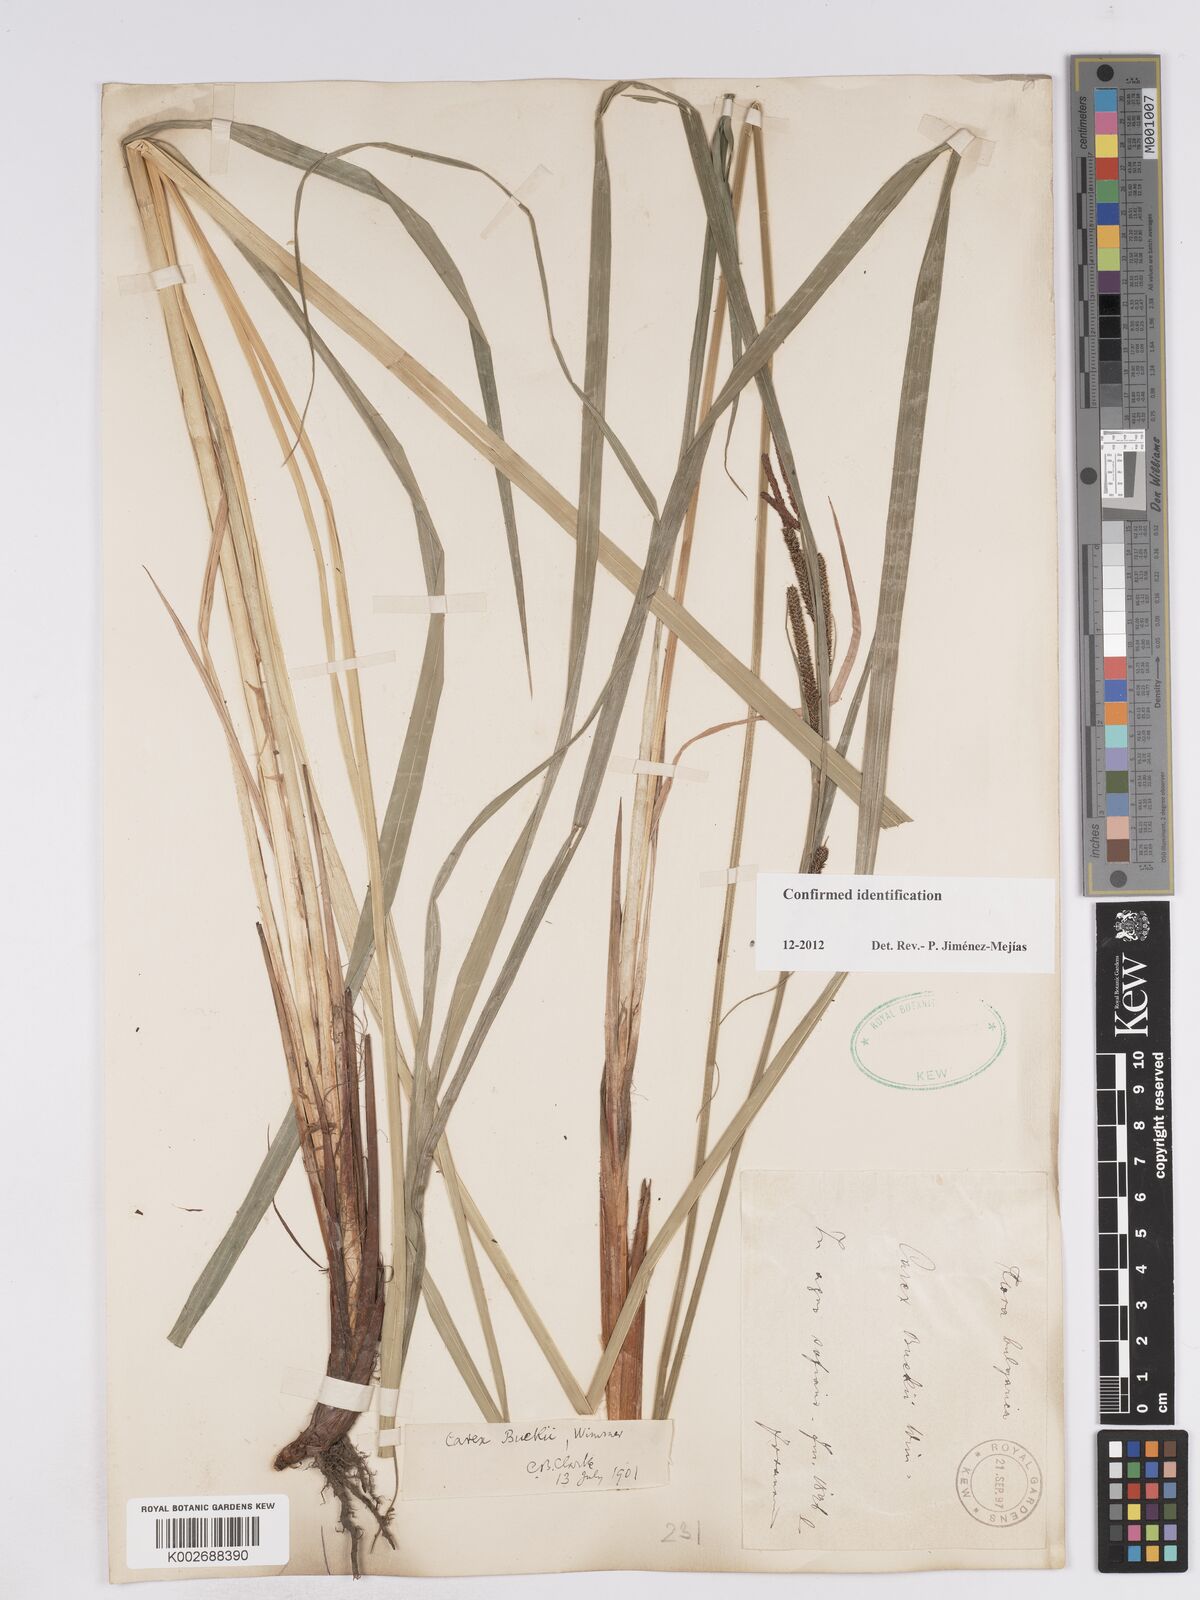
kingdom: Plantae
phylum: Tracheophyta
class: Liliopsida
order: Poales
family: Cyperaceae
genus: Carex
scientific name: Carex buekii
